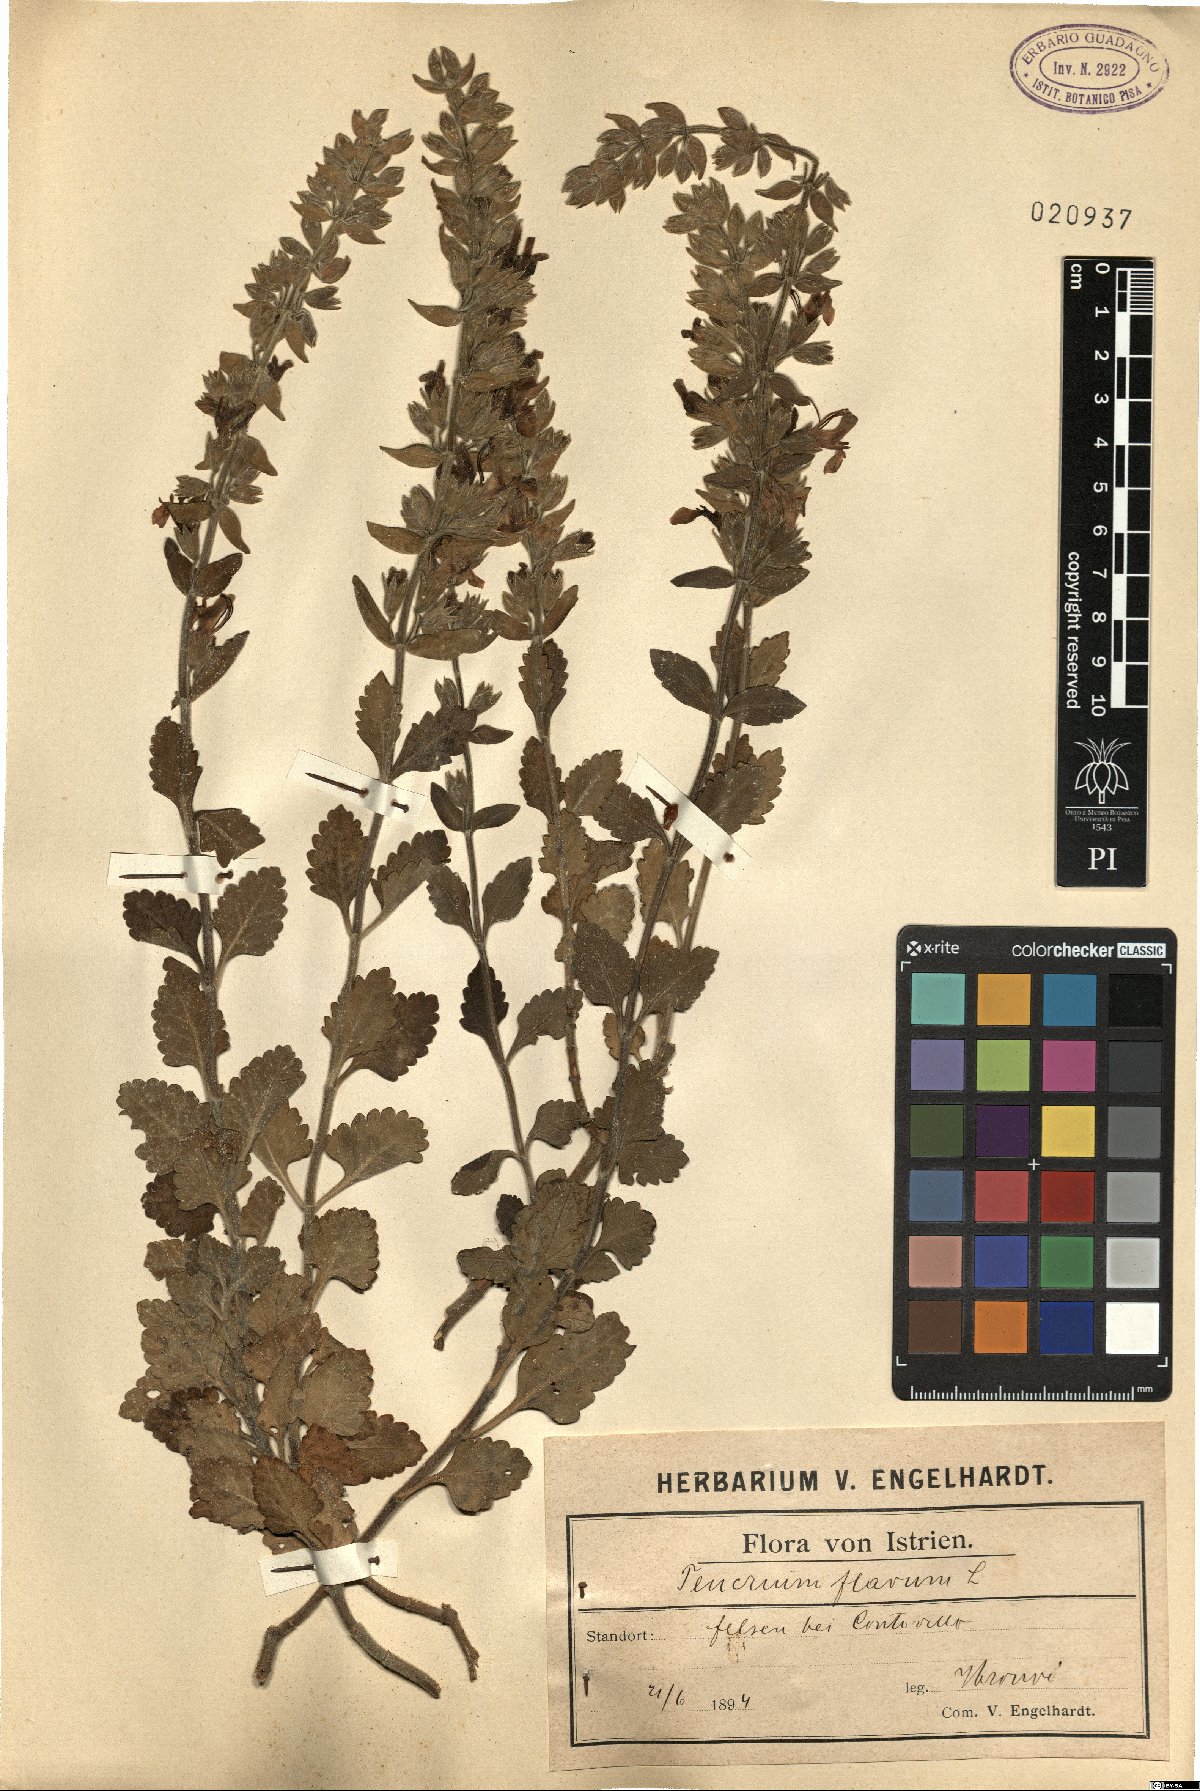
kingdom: Plantae
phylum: Tracheophyta
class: Magnoliopsida
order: Lamiales
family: Lamiaceae
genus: Teucrium
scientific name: Teucrium flavum
